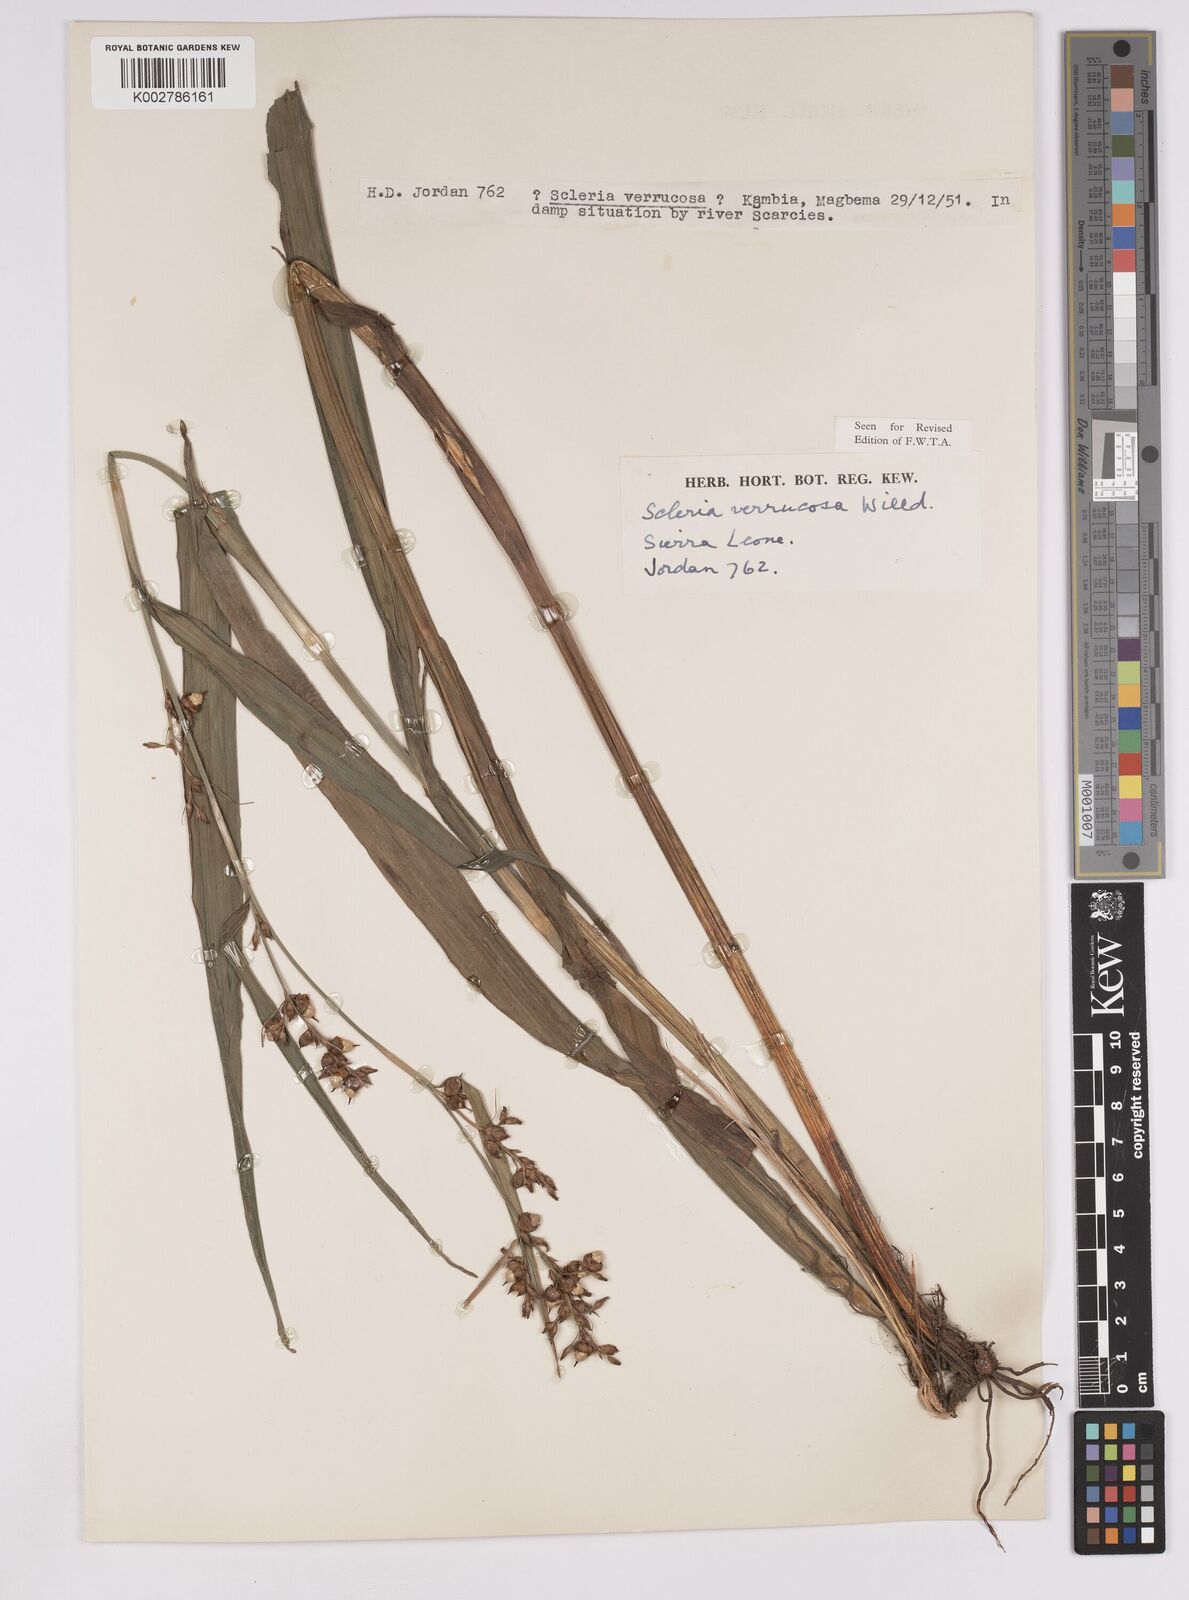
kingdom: Plantae
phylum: Tracheophyta
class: Liliopsida
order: Poales
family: Cyperaceae
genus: Scleria
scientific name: Scleria verrucosa
